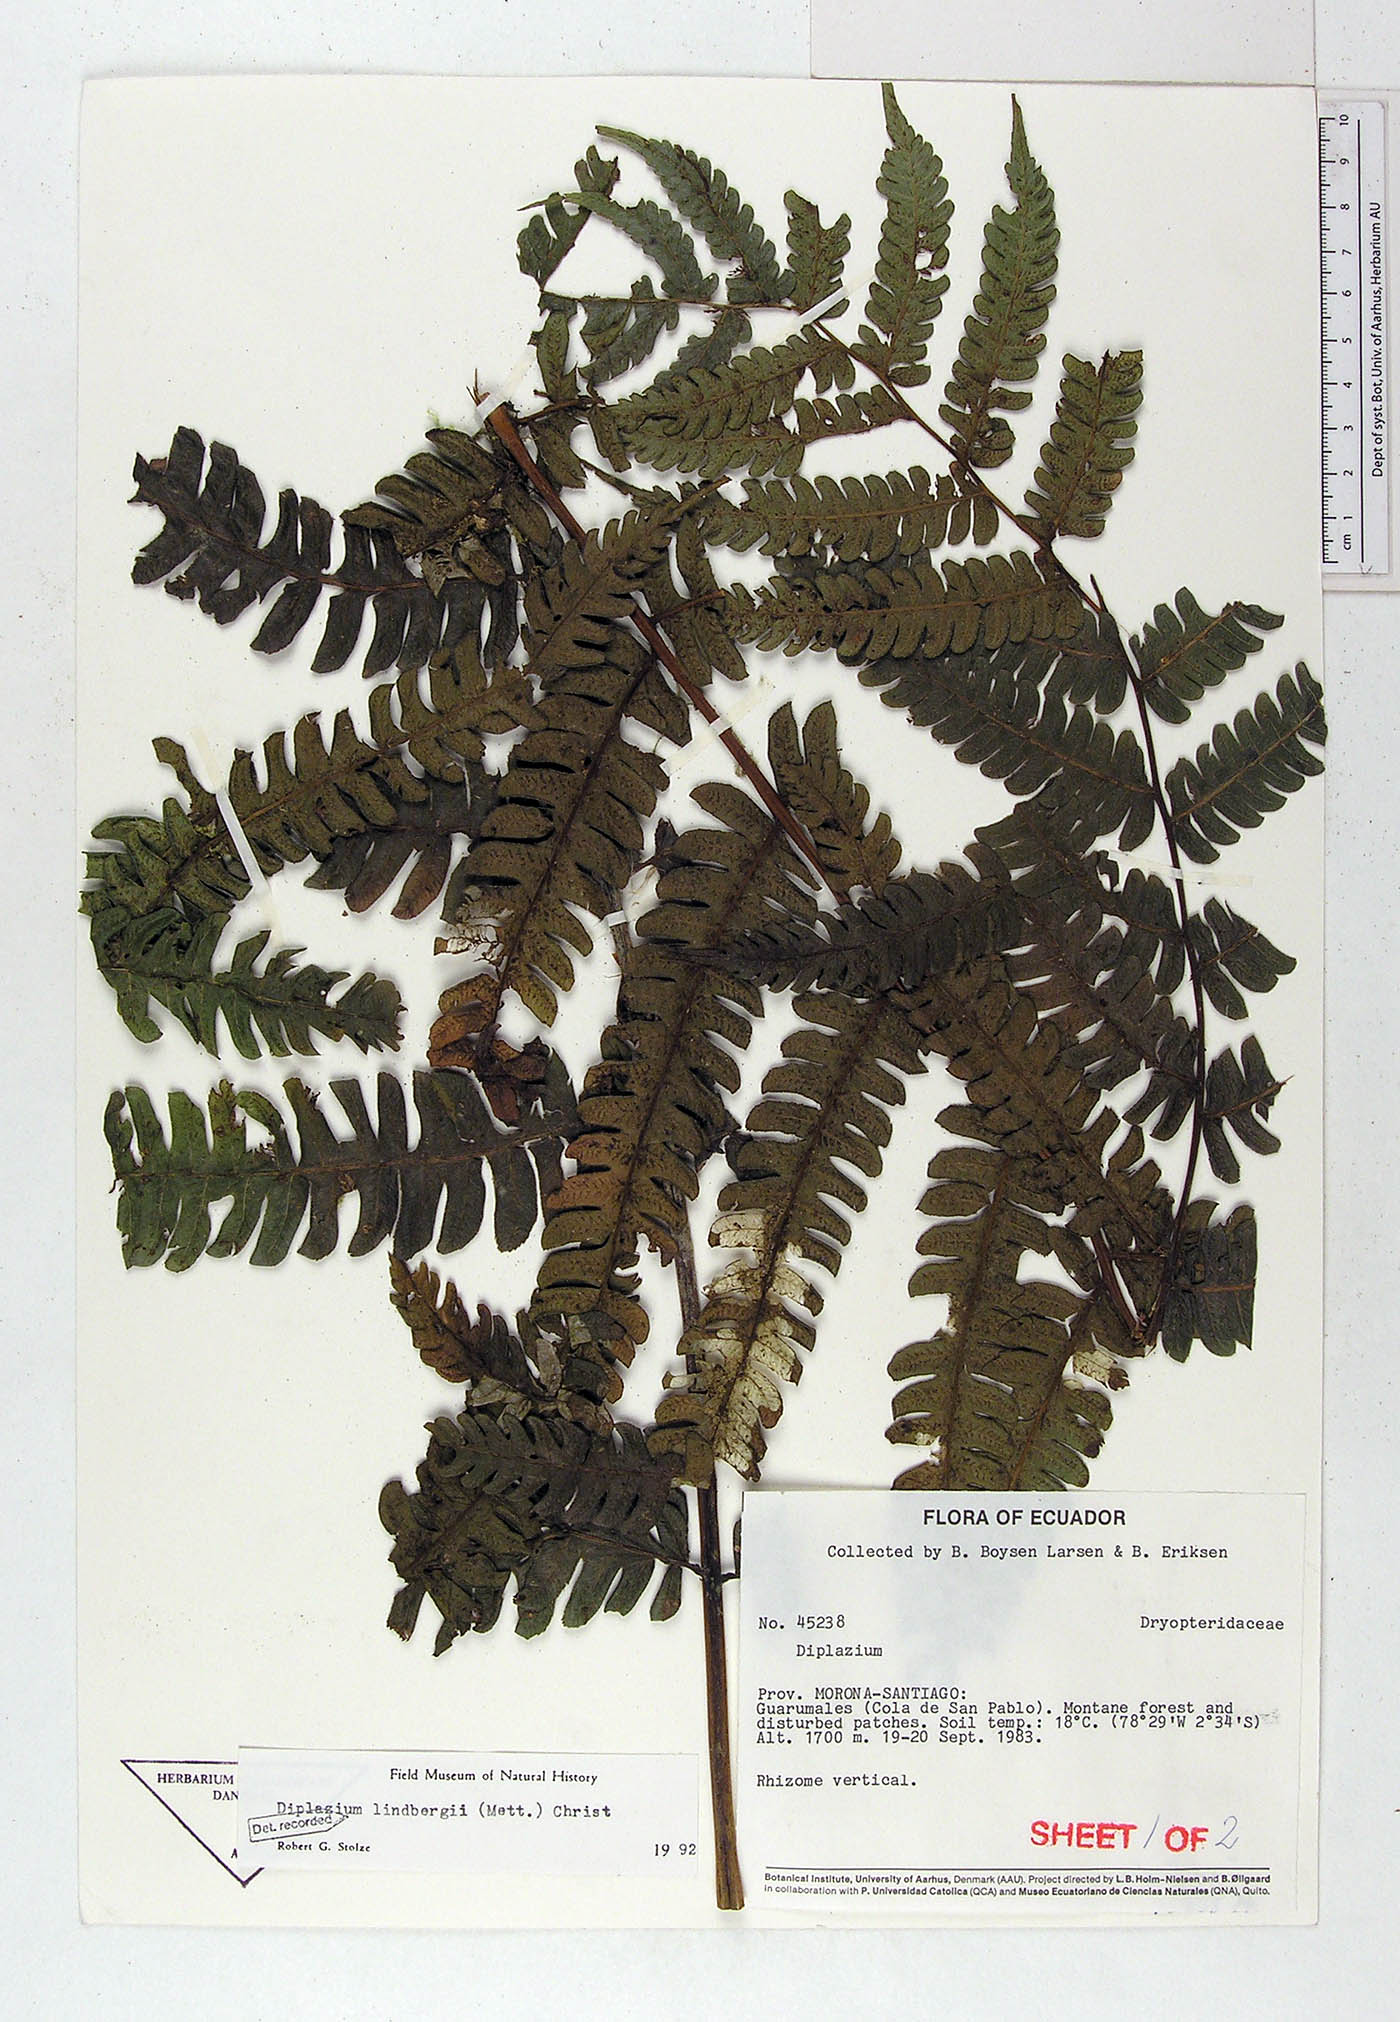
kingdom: Plantae
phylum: Tracheophyta
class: Polypodiopsida
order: Polypodiales
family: Athyriaceae
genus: Diplazium
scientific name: Diplazium lindbergii
